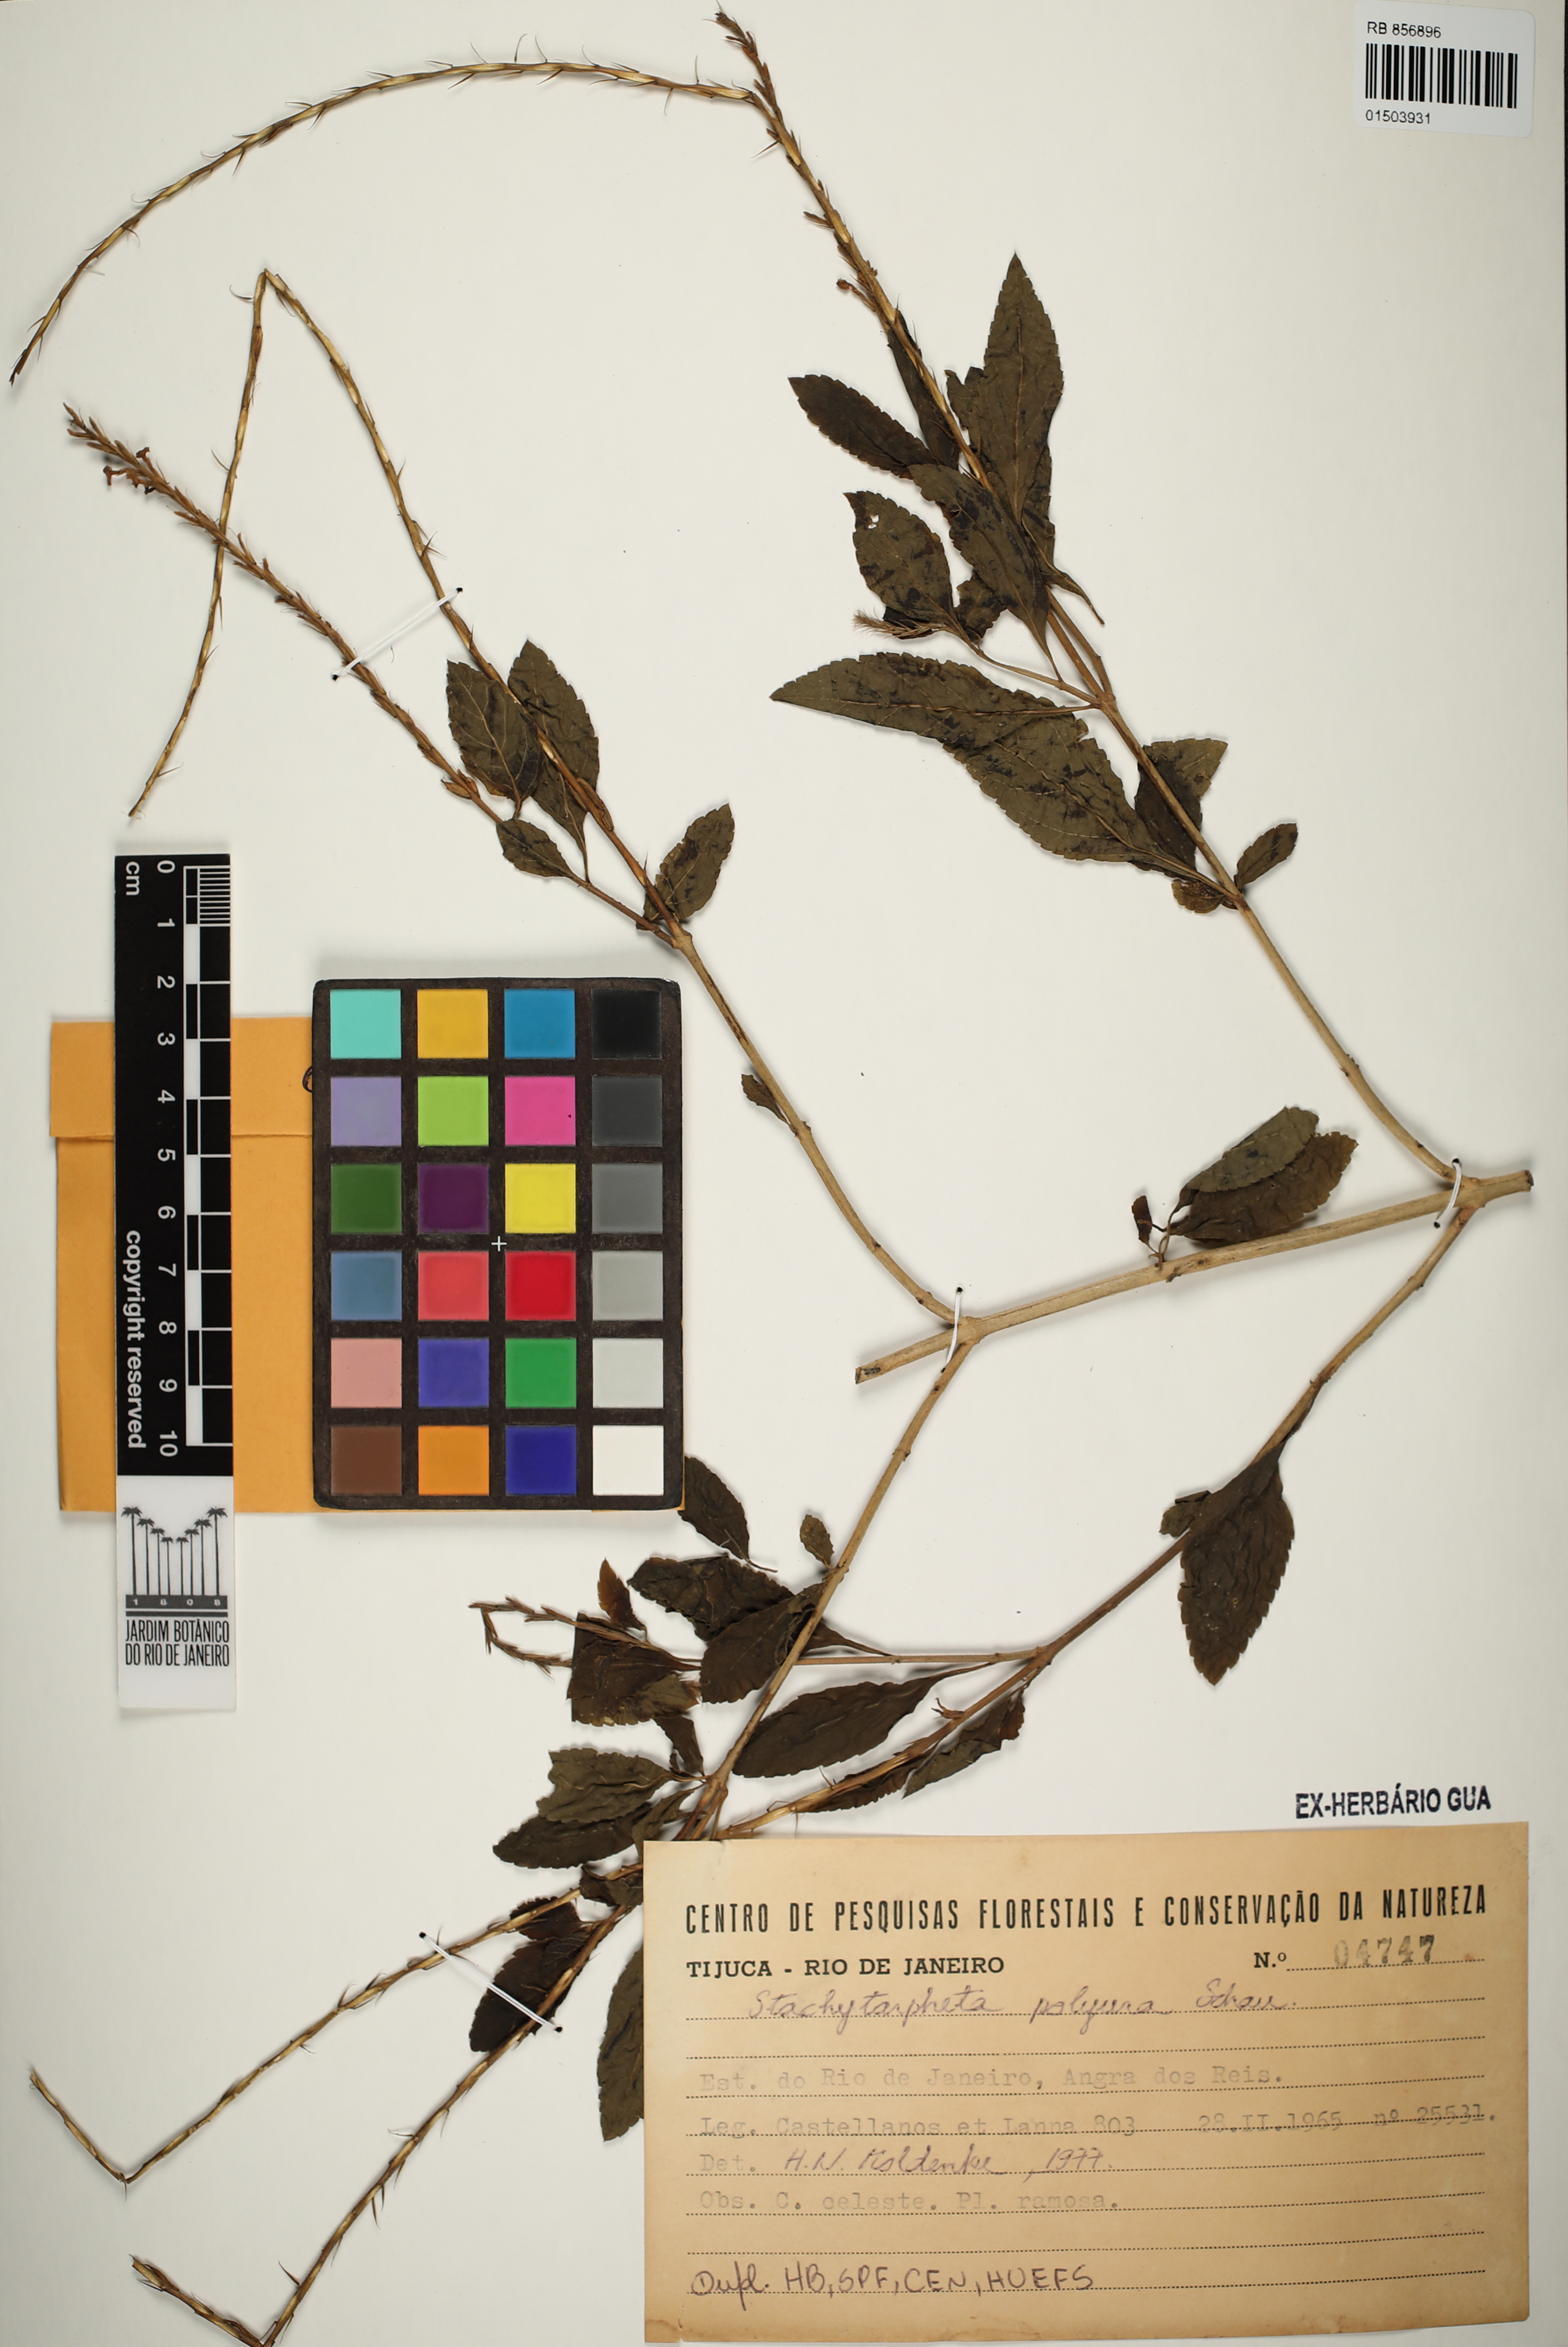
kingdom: Plantae
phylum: Tracheophyta
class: Magnoliopsida
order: Lamiales
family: Verbenaceae
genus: Stachytarpheta
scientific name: Stachytarpheta polyura
